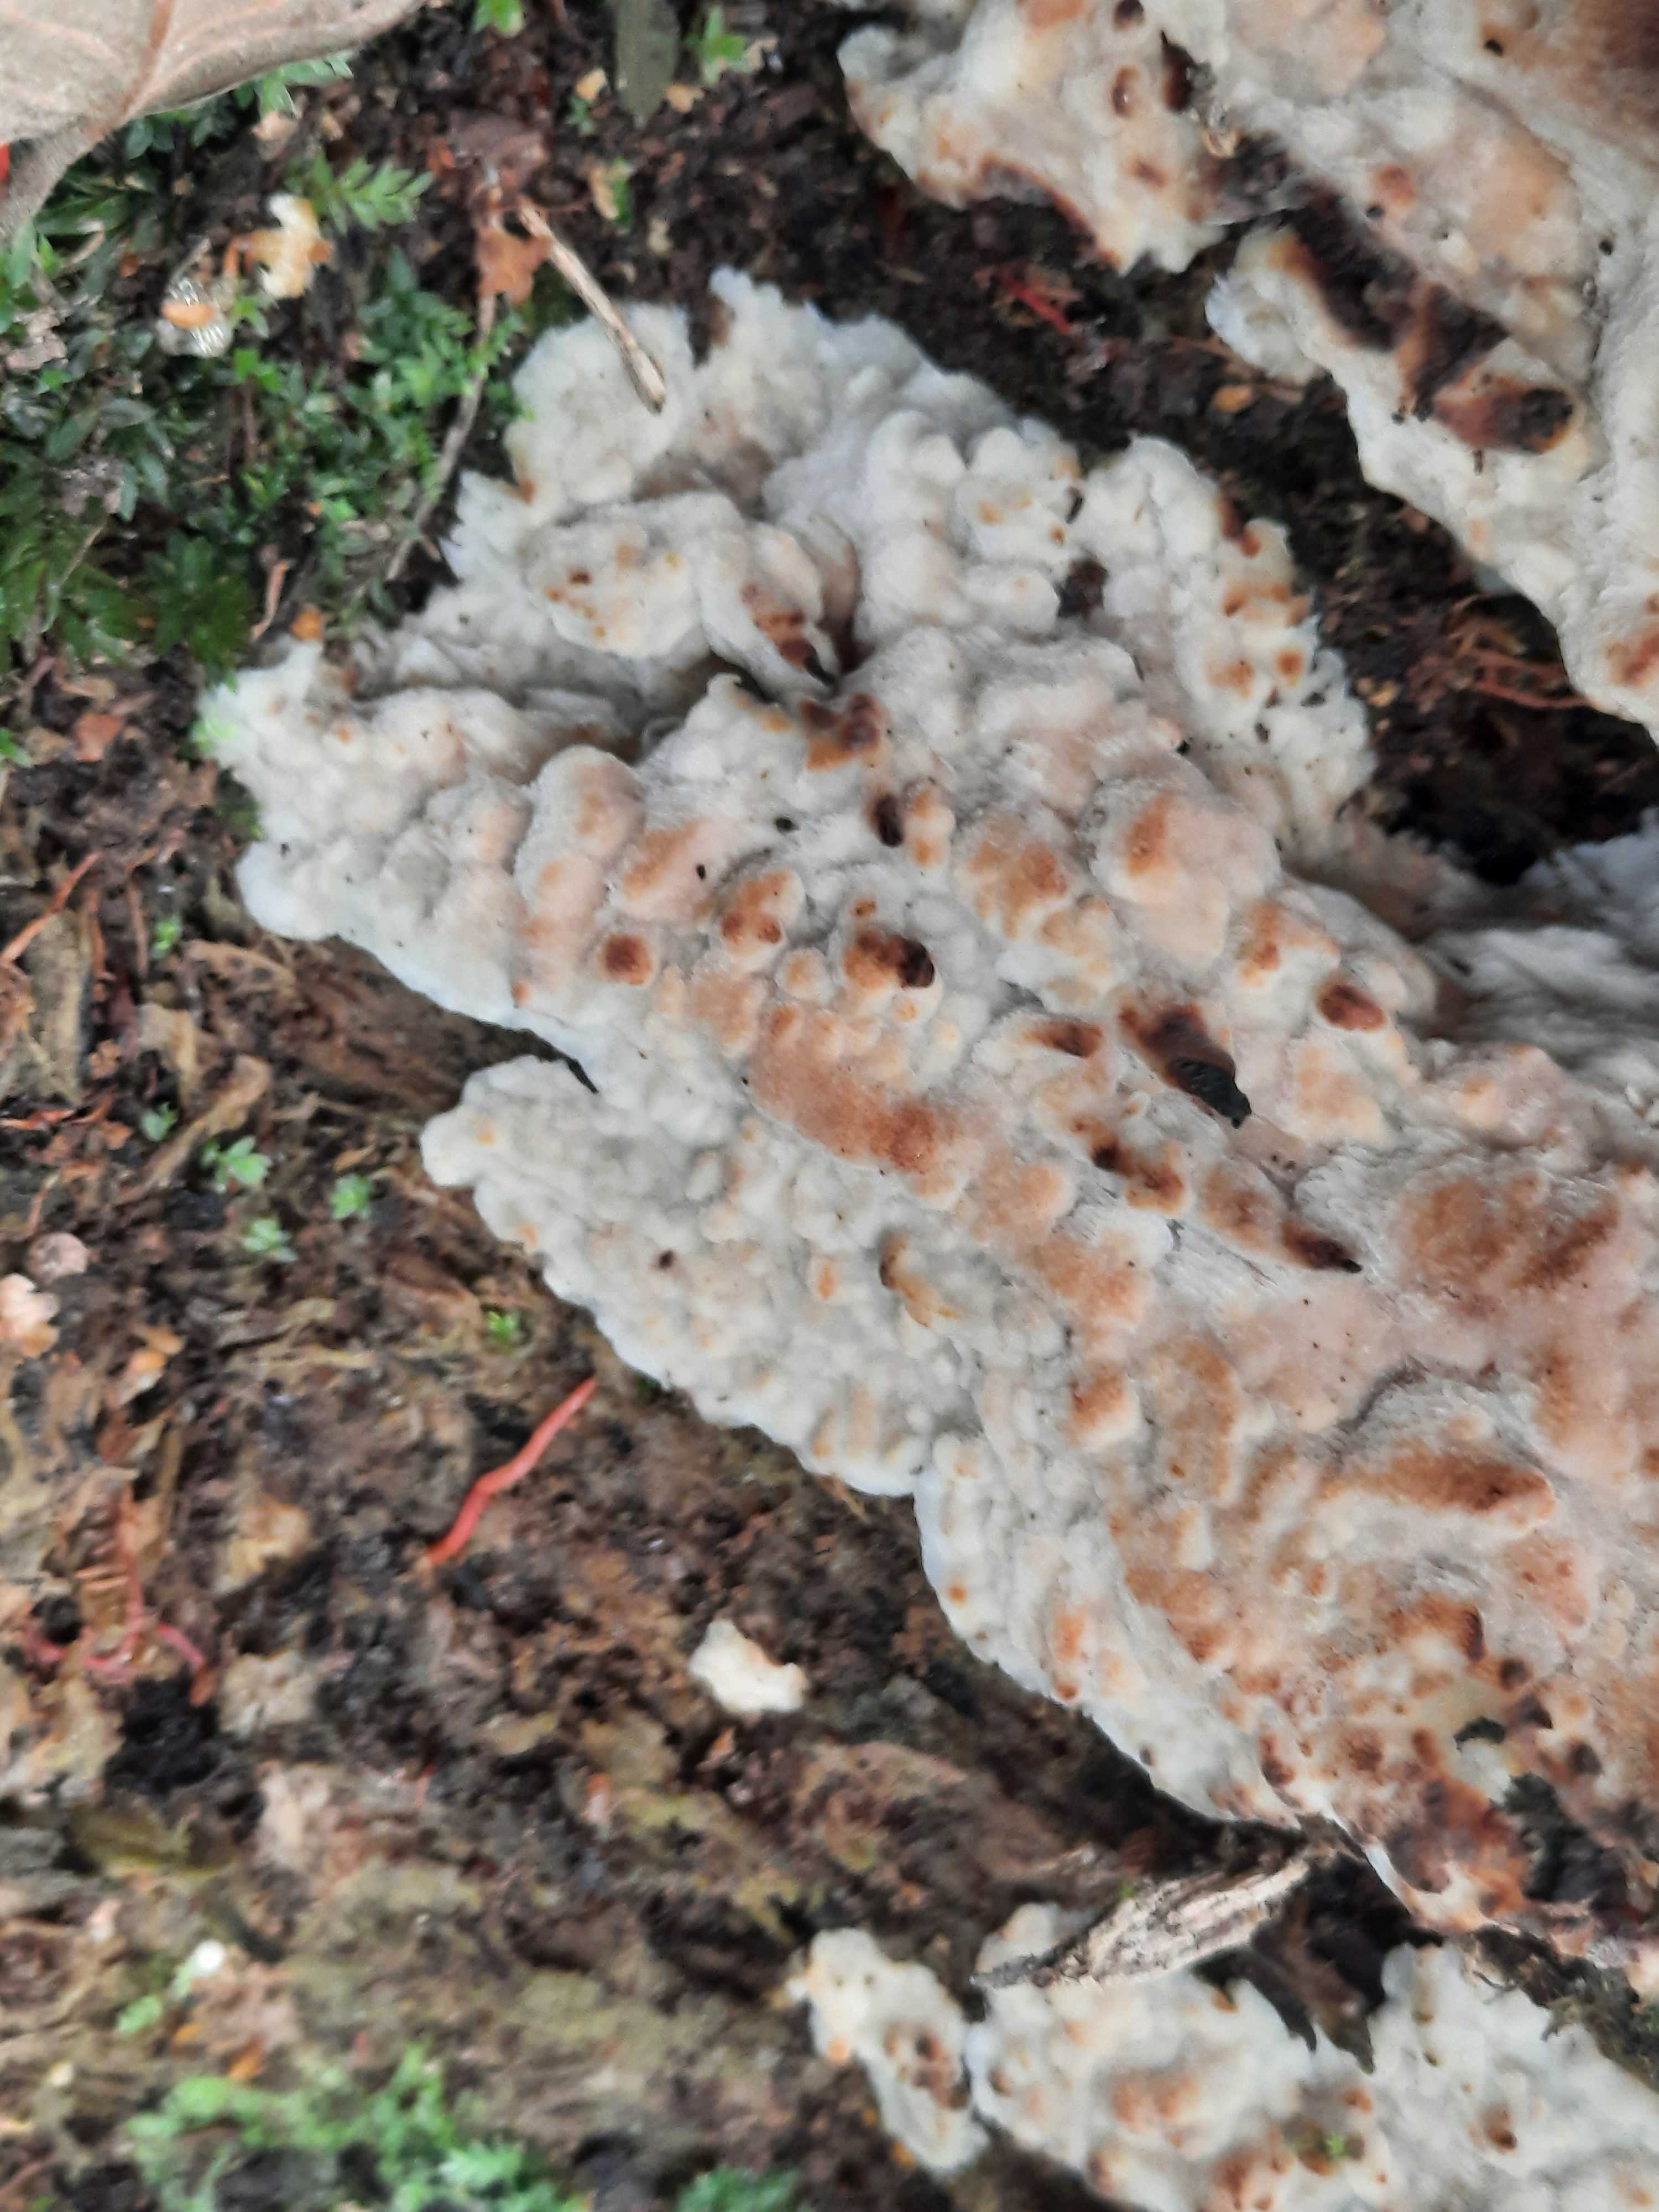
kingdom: Fungi
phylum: Basidiomycota
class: Agaricomycetes
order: Polyporales
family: Meruliaceae
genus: Physisporinus
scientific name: Physisporinus
